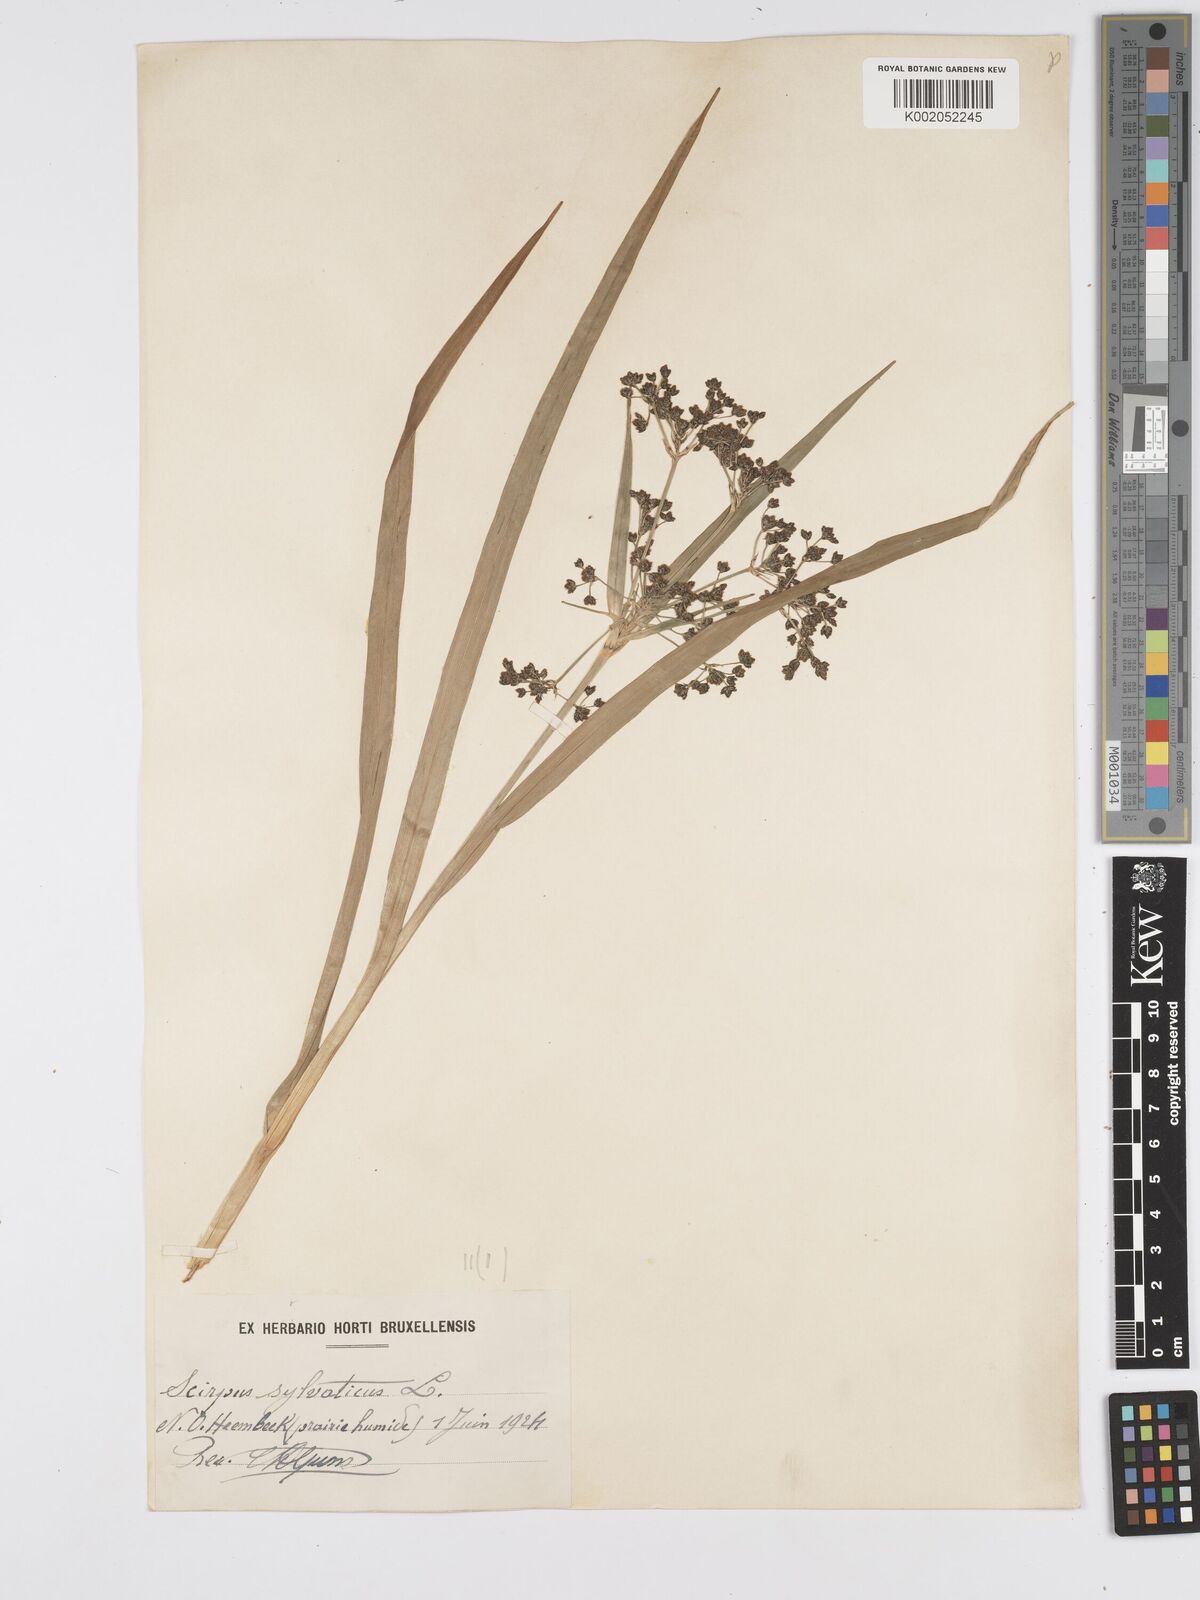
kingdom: Plantae
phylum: Tracheophyta
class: Liliopsida
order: Poales
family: Cyperaceae
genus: Scirpus
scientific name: Scirpus sylvaticus
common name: Wood club-rush
